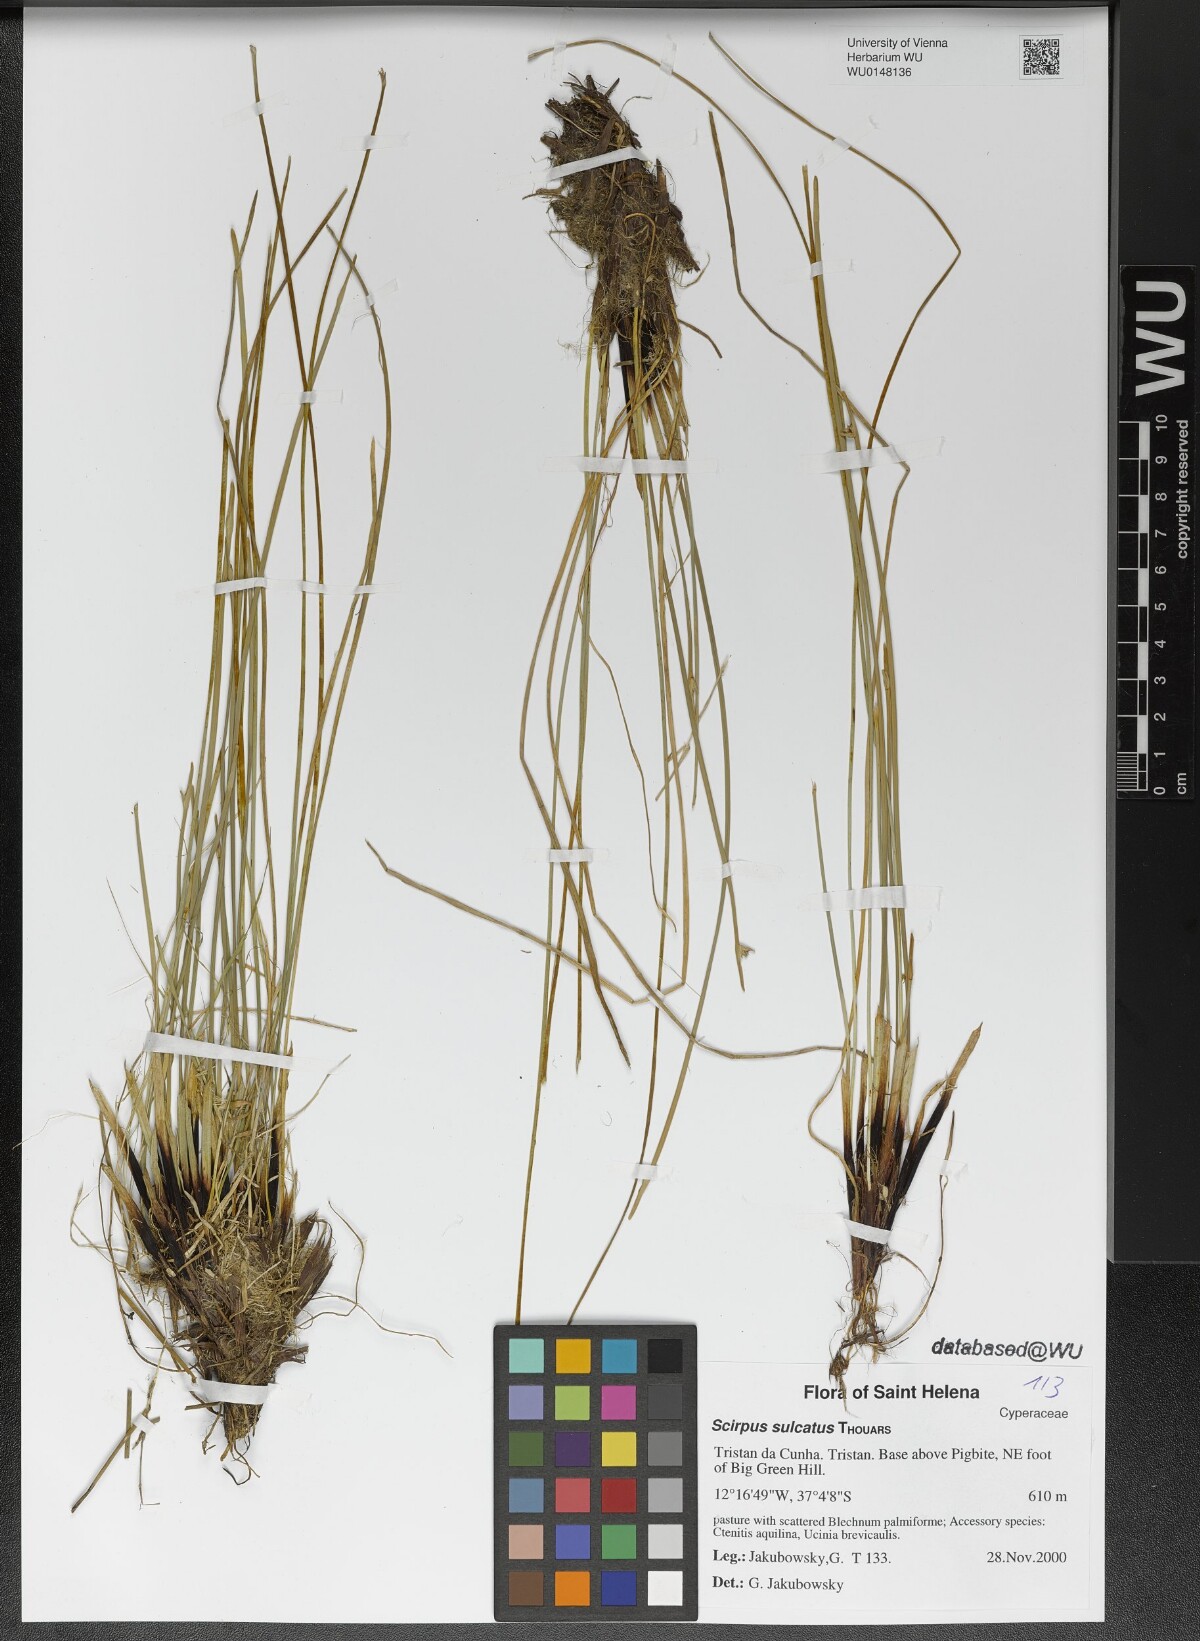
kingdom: Plantae
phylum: Tracheophyta
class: Liliopsida
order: Poales
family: Cyperaceae
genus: Isolepis
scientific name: Isolepis sulcata
